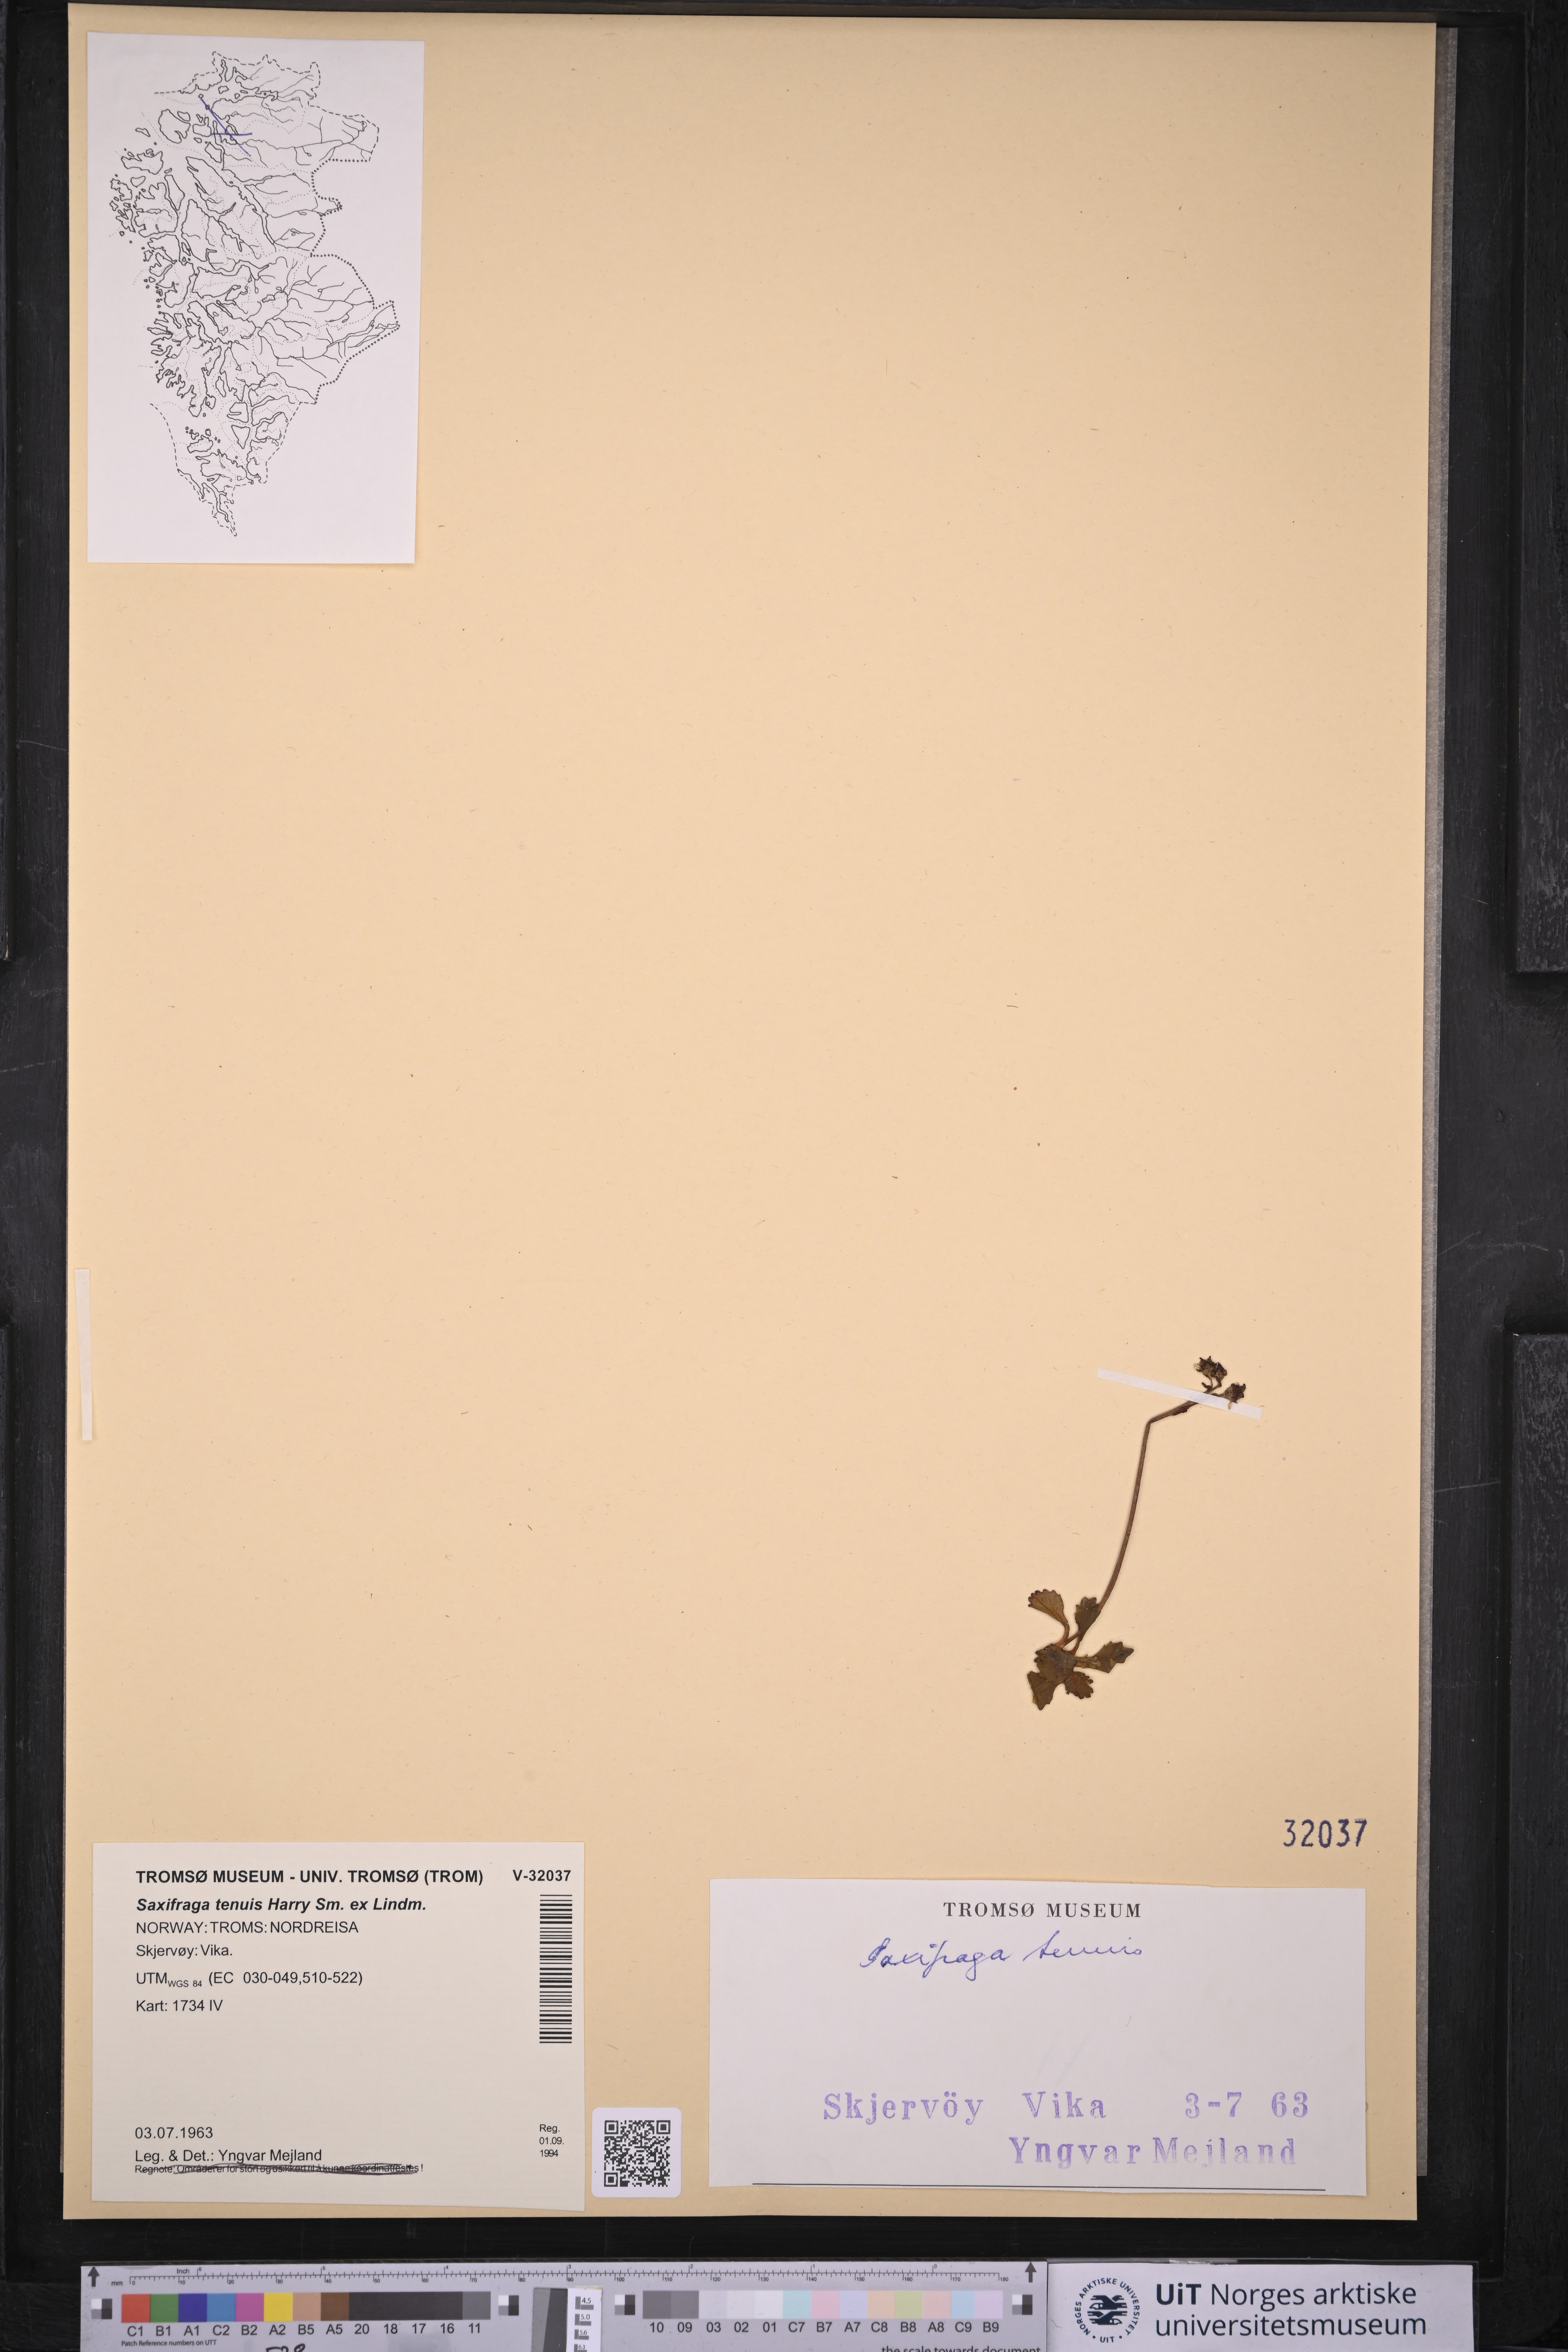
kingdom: Plantae
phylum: Tracheophyta
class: Magnoliopsida
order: Saxifragales
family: Saxifragaceae
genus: Micranthes
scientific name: Micranthes tenuis
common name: Ottertail pass saxifrage
